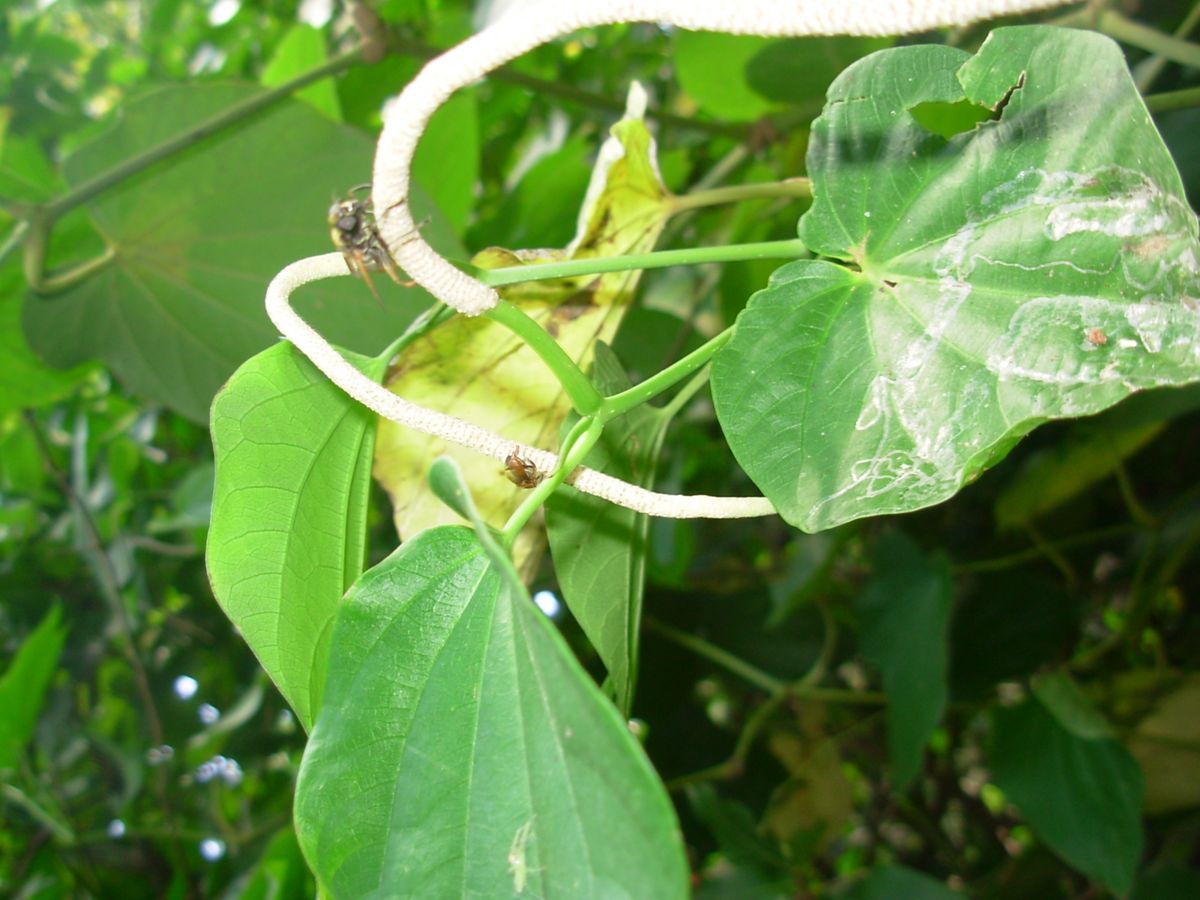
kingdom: Plantae
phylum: Tracheophyta
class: Magnoliopsida
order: Piperales
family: Piperaceae
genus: Piper
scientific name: Piper patulum
